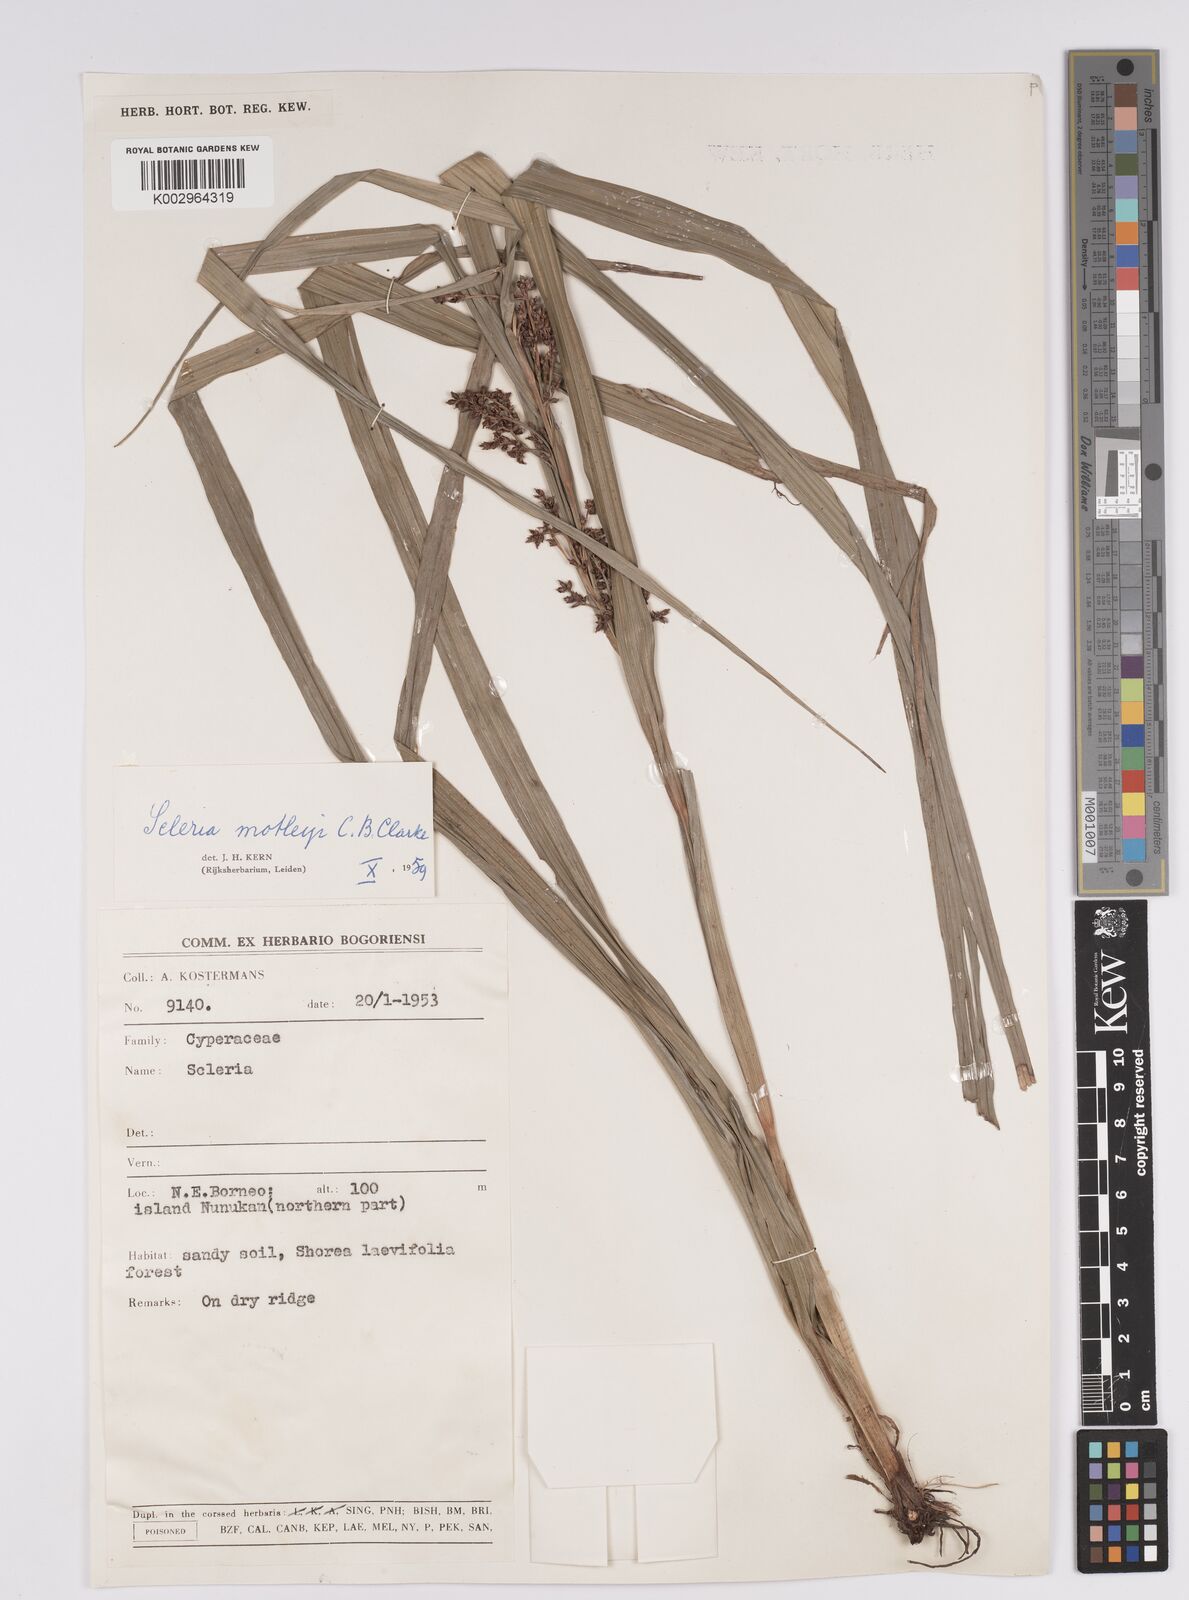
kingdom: Plantae
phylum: Tracheophyta
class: Liliopsida
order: Poales
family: Cyperaceae
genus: Scleria
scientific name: Scleria motleyi
